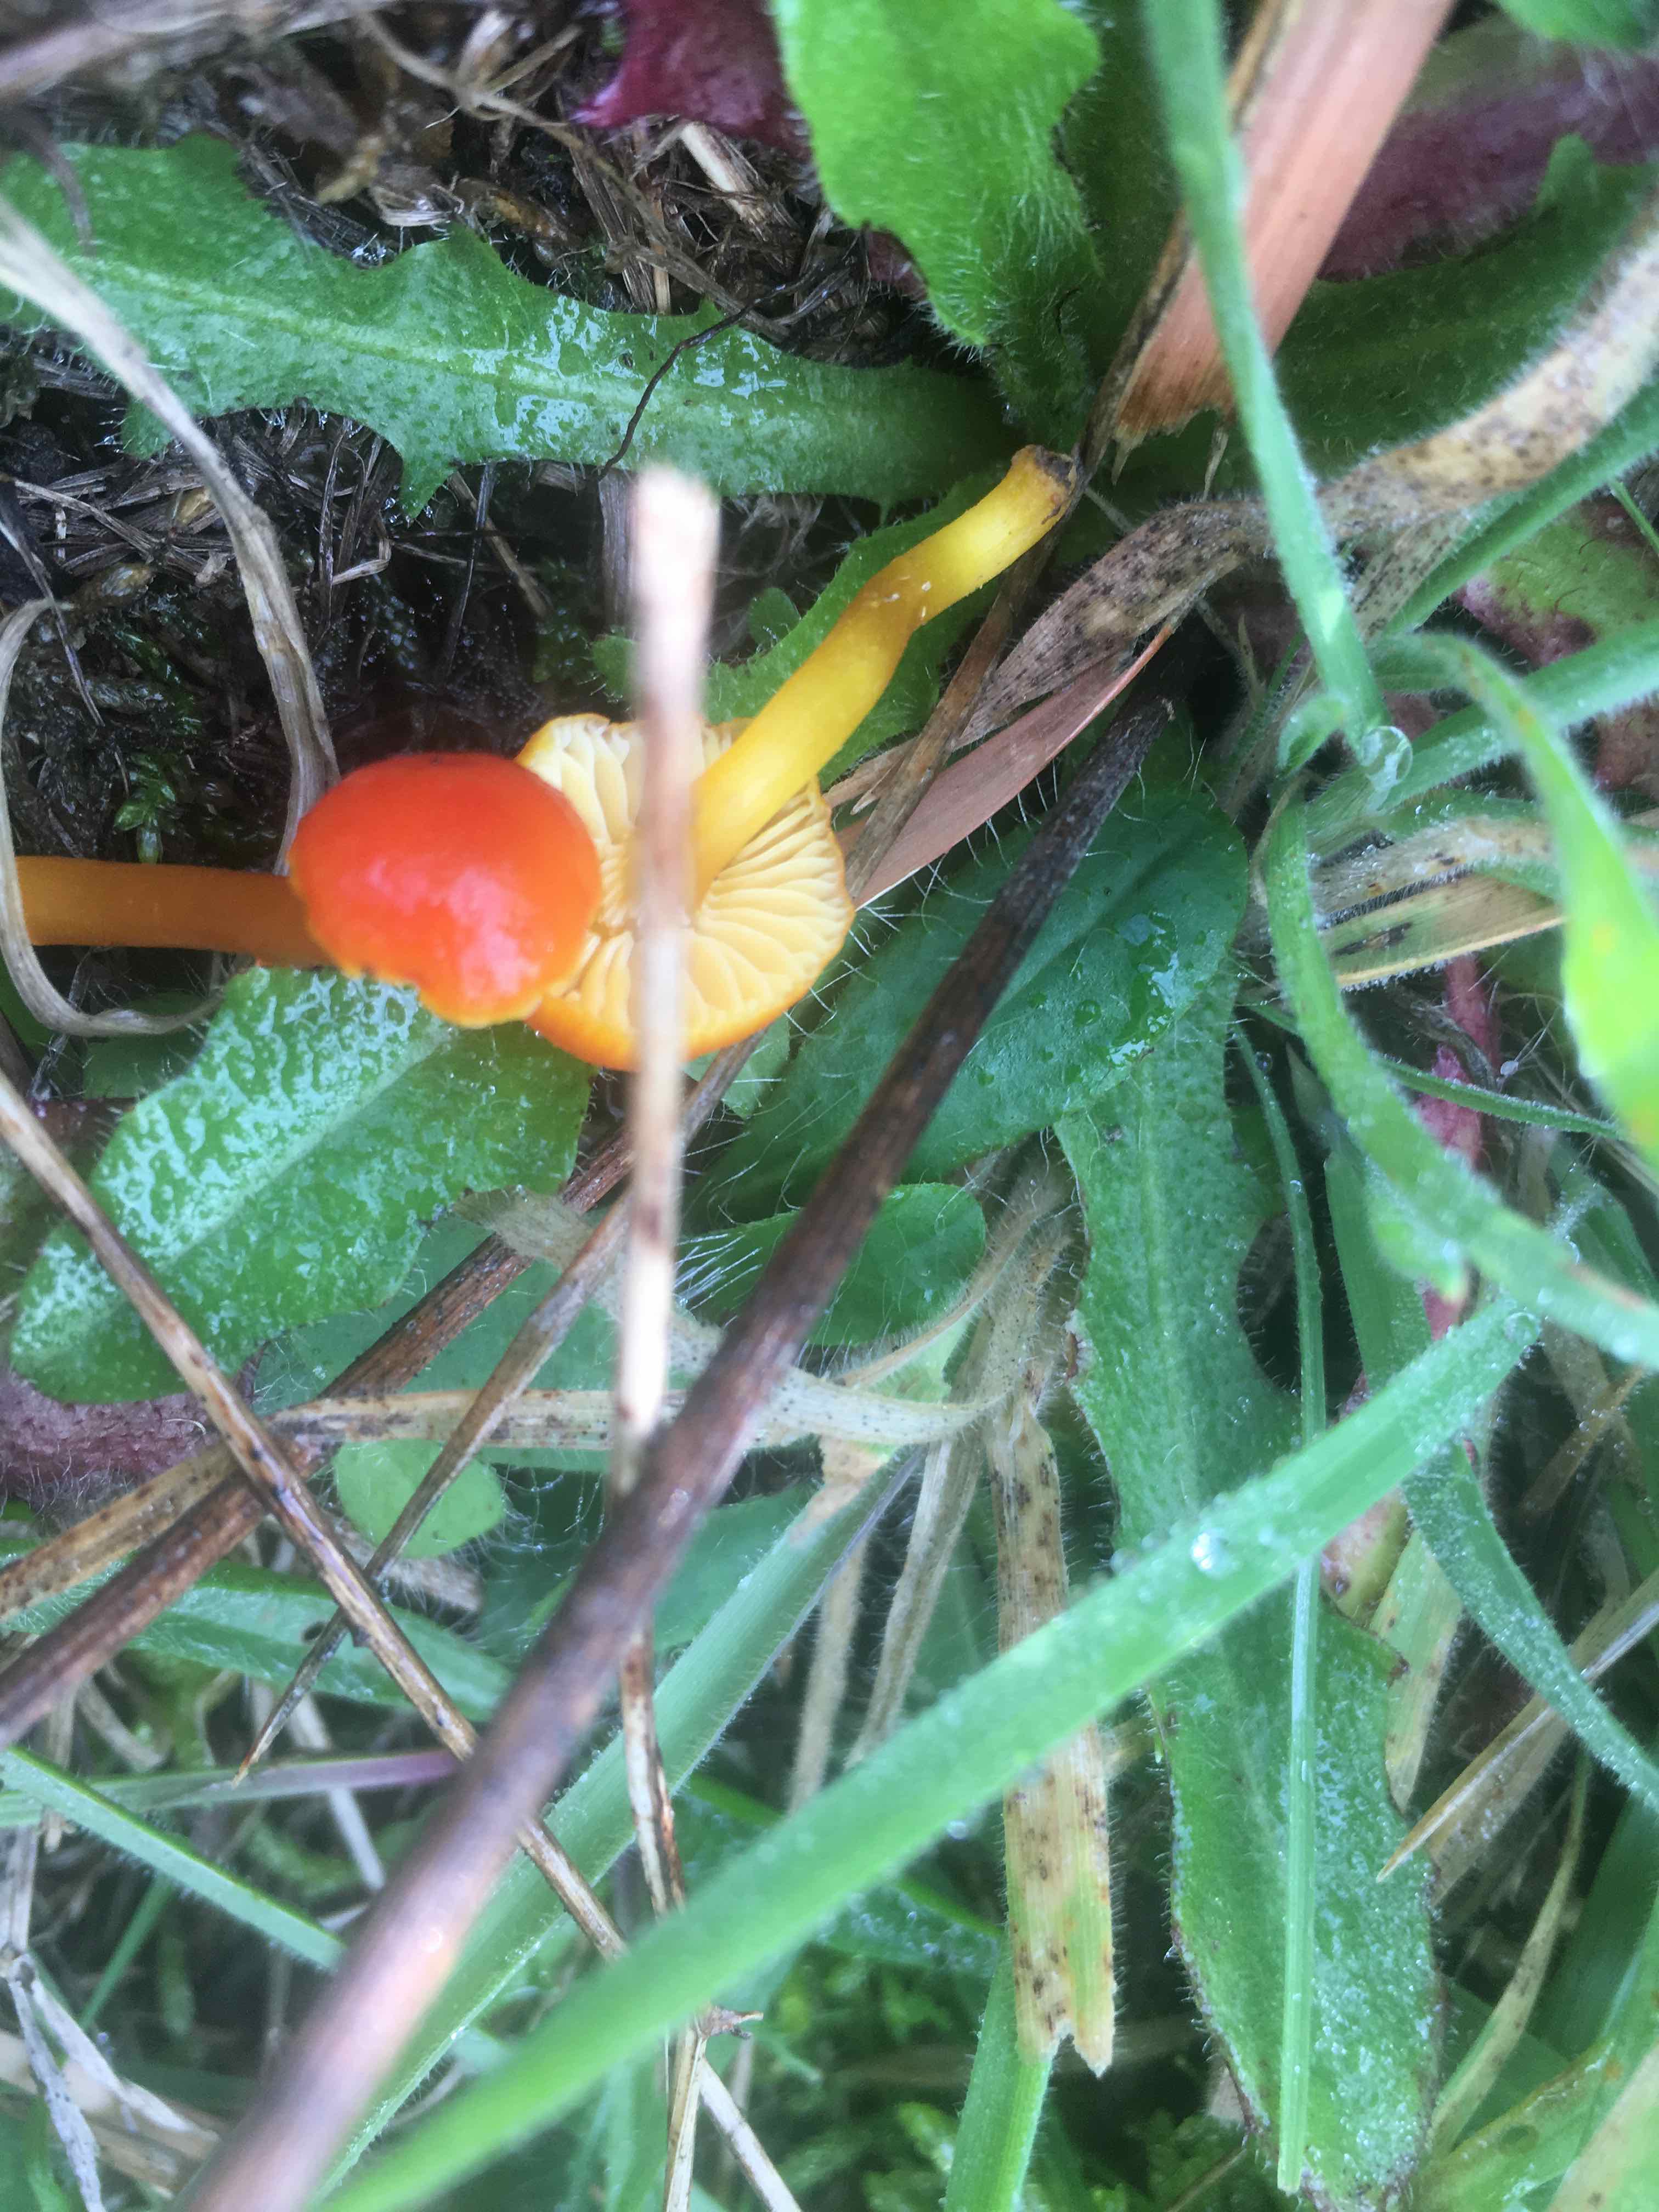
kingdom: Fungi
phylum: Basidiomycota
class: Agaricomycetes
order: Agaricales
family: Hygrophoraceae
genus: Hygrocybe
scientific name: Hygrocybe miniata
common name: mønje-vokshat
